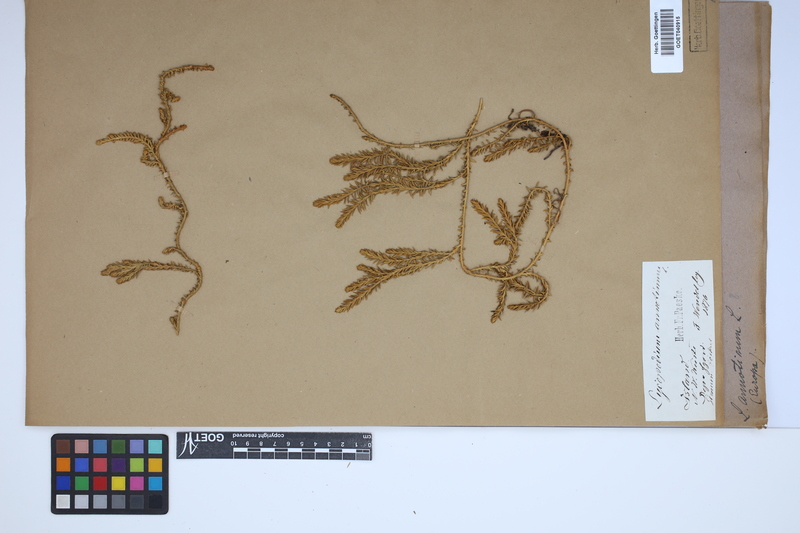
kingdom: Plantae
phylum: Tracheophyta
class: Lycopodiopsida
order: Lycopodiales
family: Lycopodiaceae
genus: Spinulum
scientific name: Spinulum annotinum
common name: Interrupted club-moss
